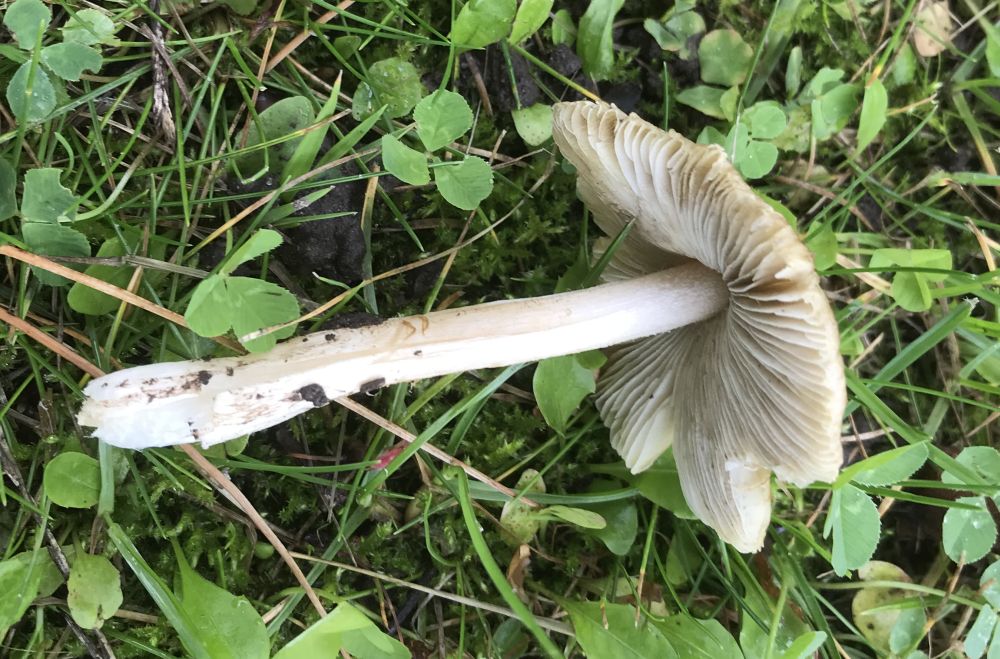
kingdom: Fungi
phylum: Basidiomycota
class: Agaricomycetes
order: Agaricales
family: Inocybaceae
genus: Pseudosperma
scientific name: Pseudosperma
